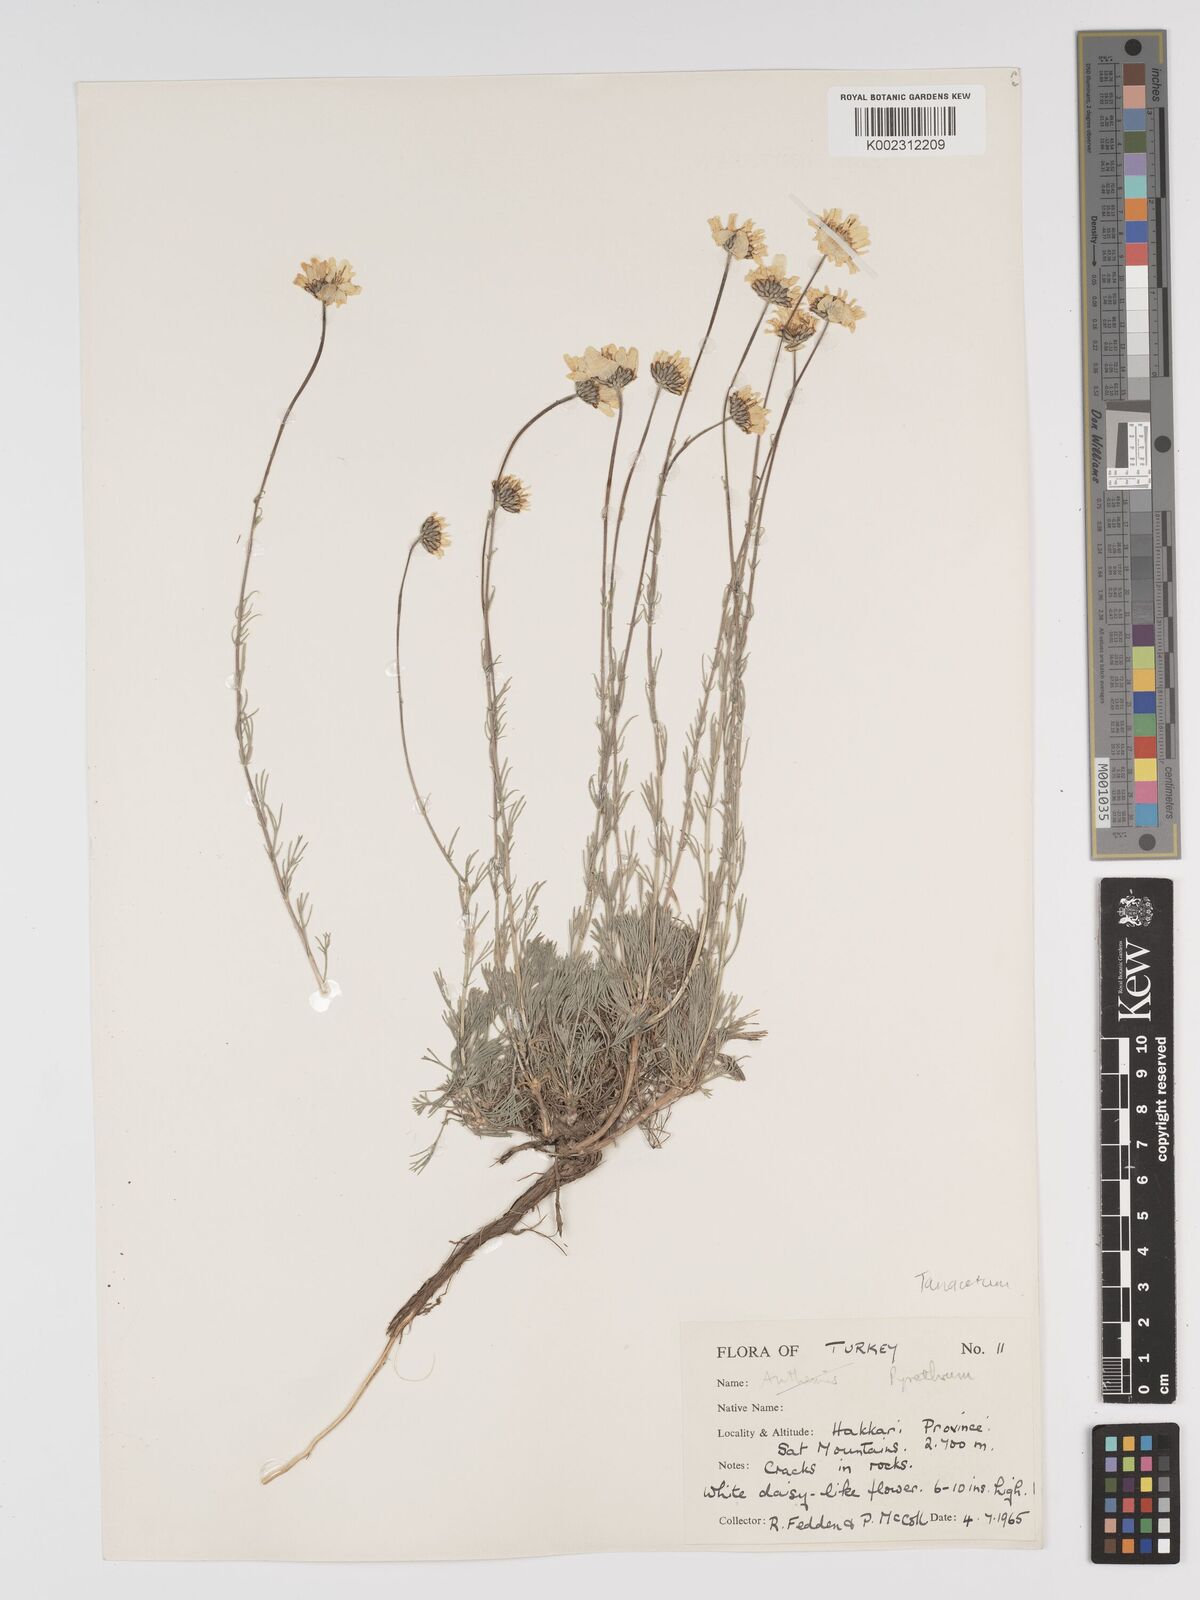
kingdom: Plantae
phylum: Tracheophyta
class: Magnoliopsida
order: Asterales
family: Asteraceae
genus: Tanacetum
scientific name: Tanacetum
